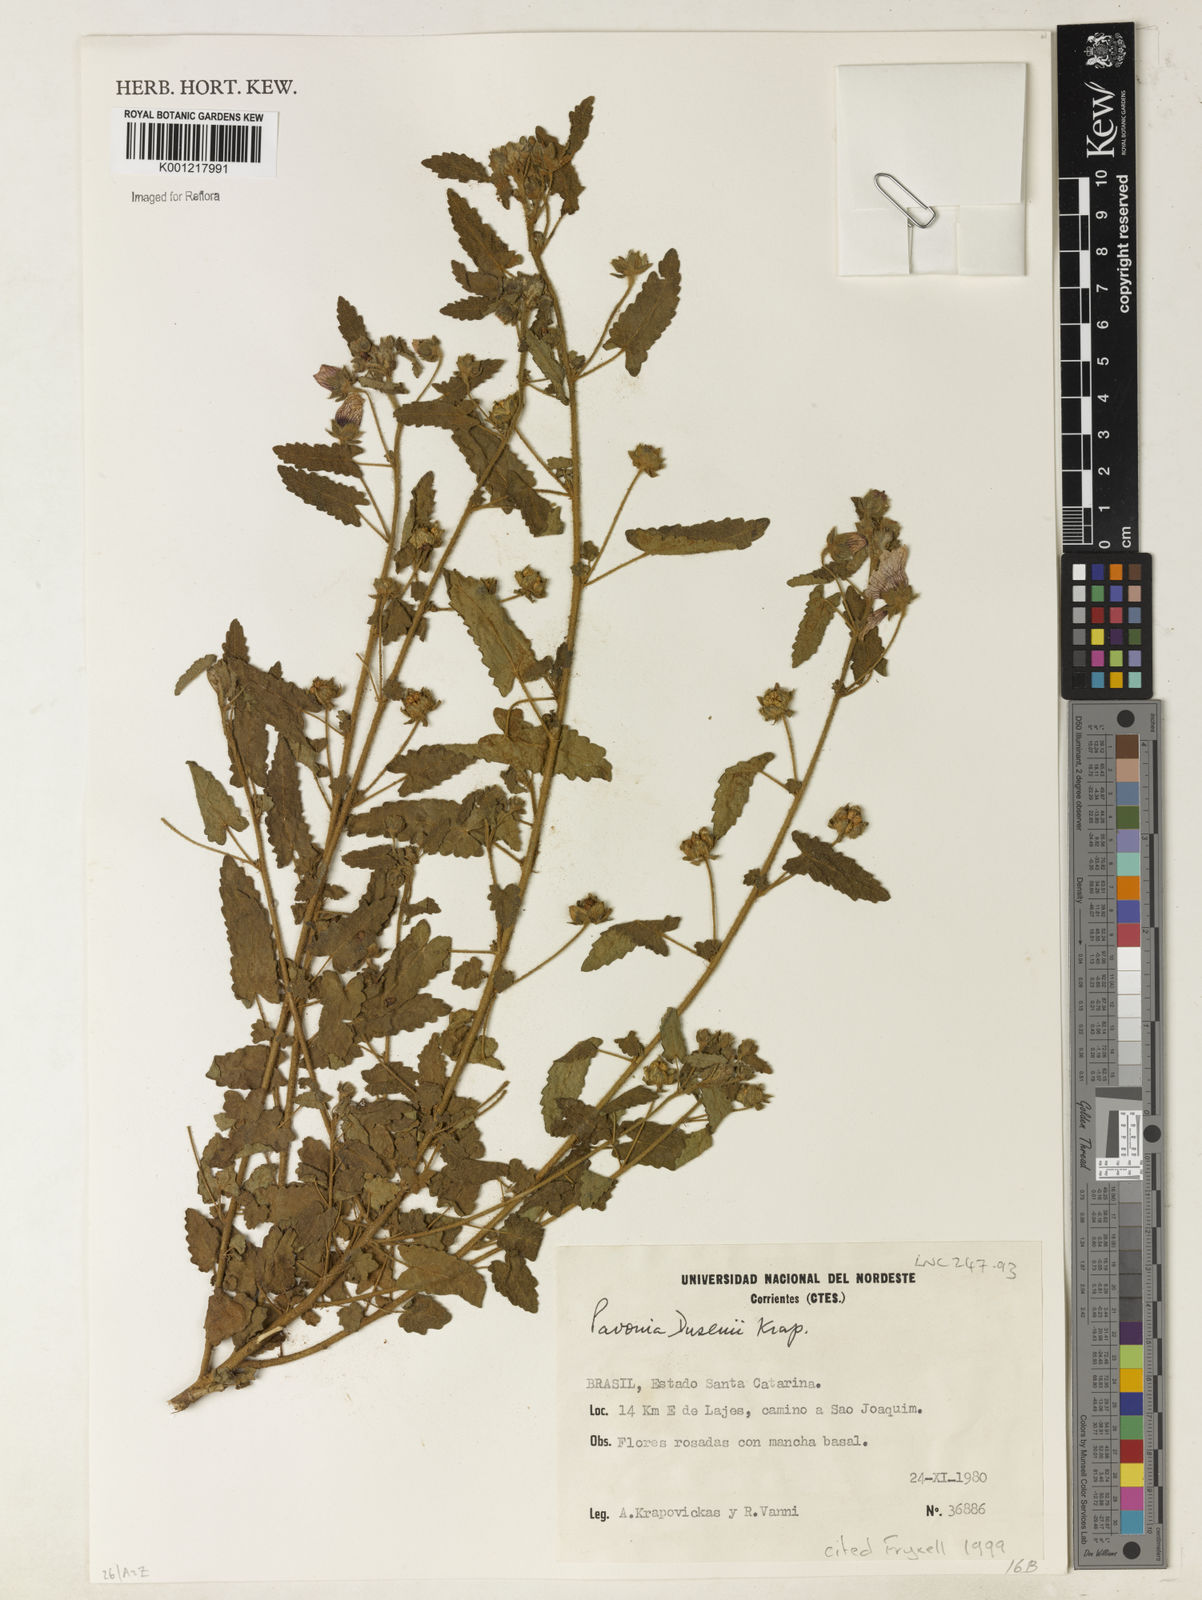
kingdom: Plantae
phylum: Tracheophyta
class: Magnoliopsida
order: Malvales
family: Malvaceae
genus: Pavonia
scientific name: Pavonia dusenii
